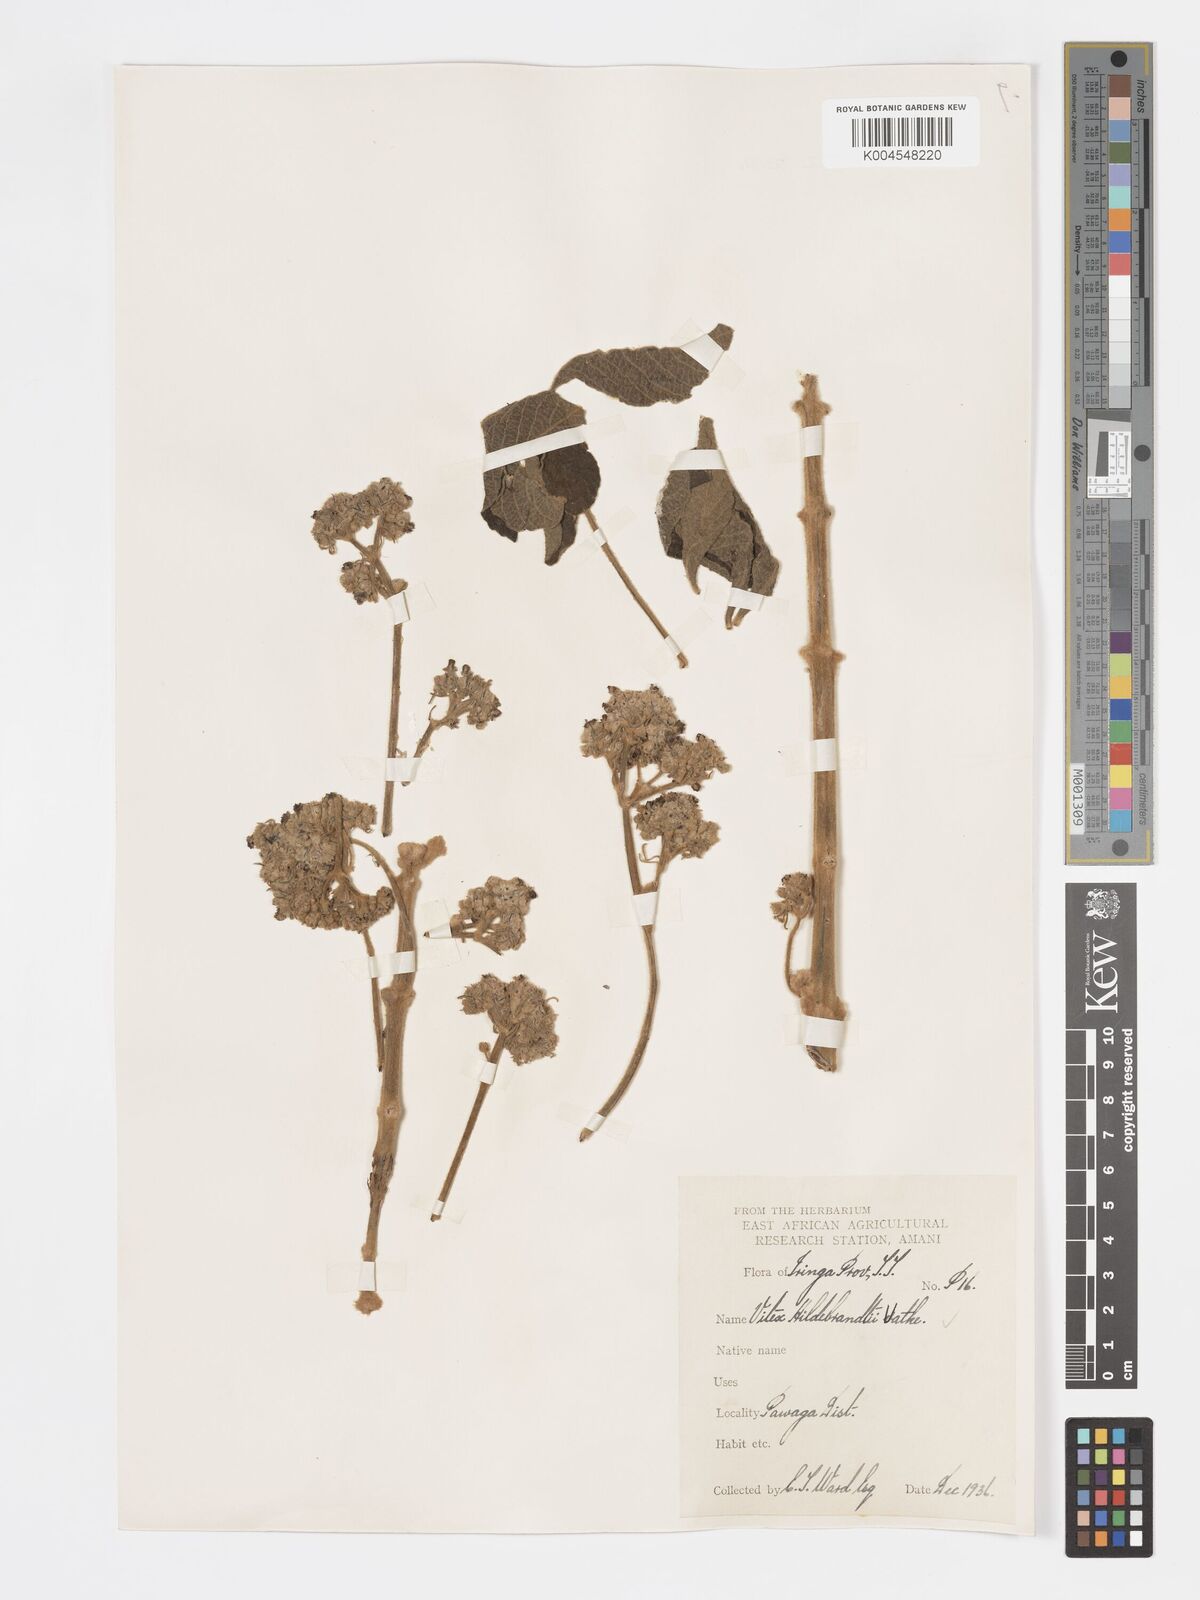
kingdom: Plantae
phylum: Tracheophyta
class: Magnoliopsida
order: Lamiales
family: Lamiaceae
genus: Vitex
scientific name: Vitex payos
